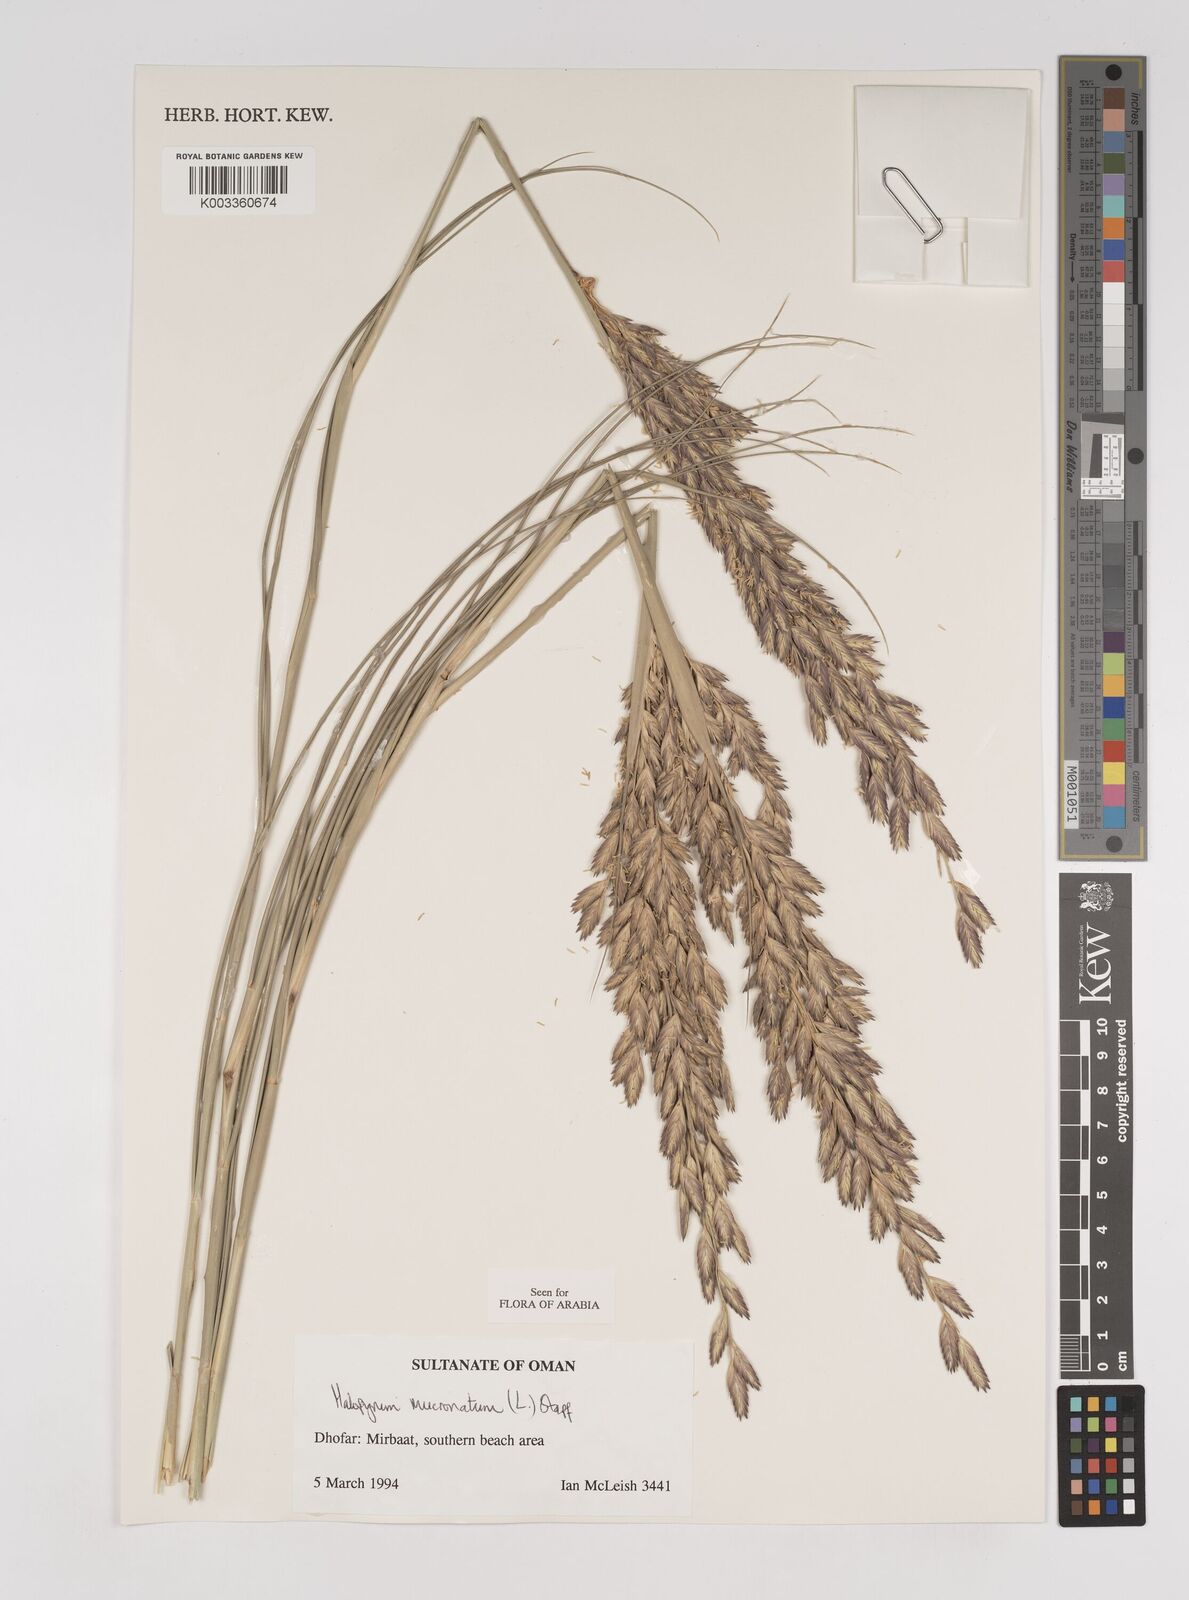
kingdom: Plantae
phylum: Tracheophyta
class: Liliopsida
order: Poales
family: Poaceae
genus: Halopyrum
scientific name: Halopyrum mucronatum
